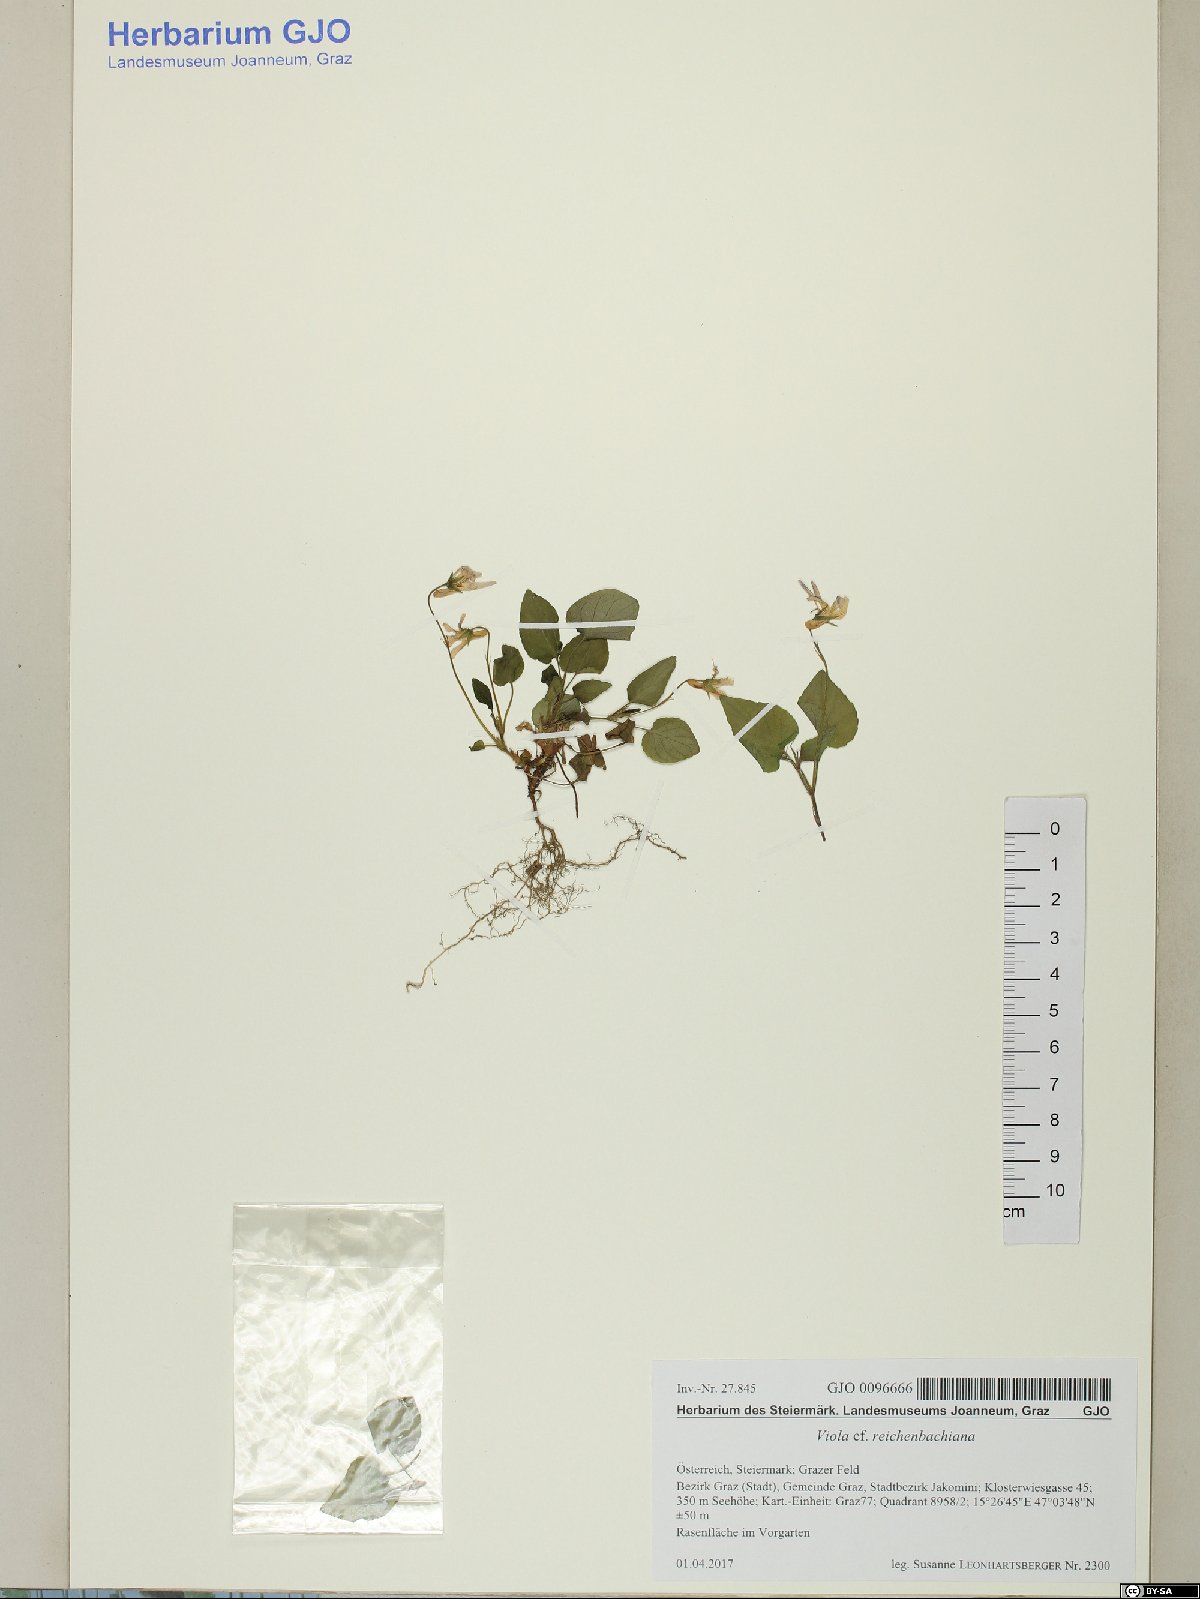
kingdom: Plantae
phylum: Tracheophyta
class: Magnoliopsida
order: Malpighiales
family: Violaceae
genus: Viola
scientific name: Viola reichenbachiana
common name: Early dog-violet
